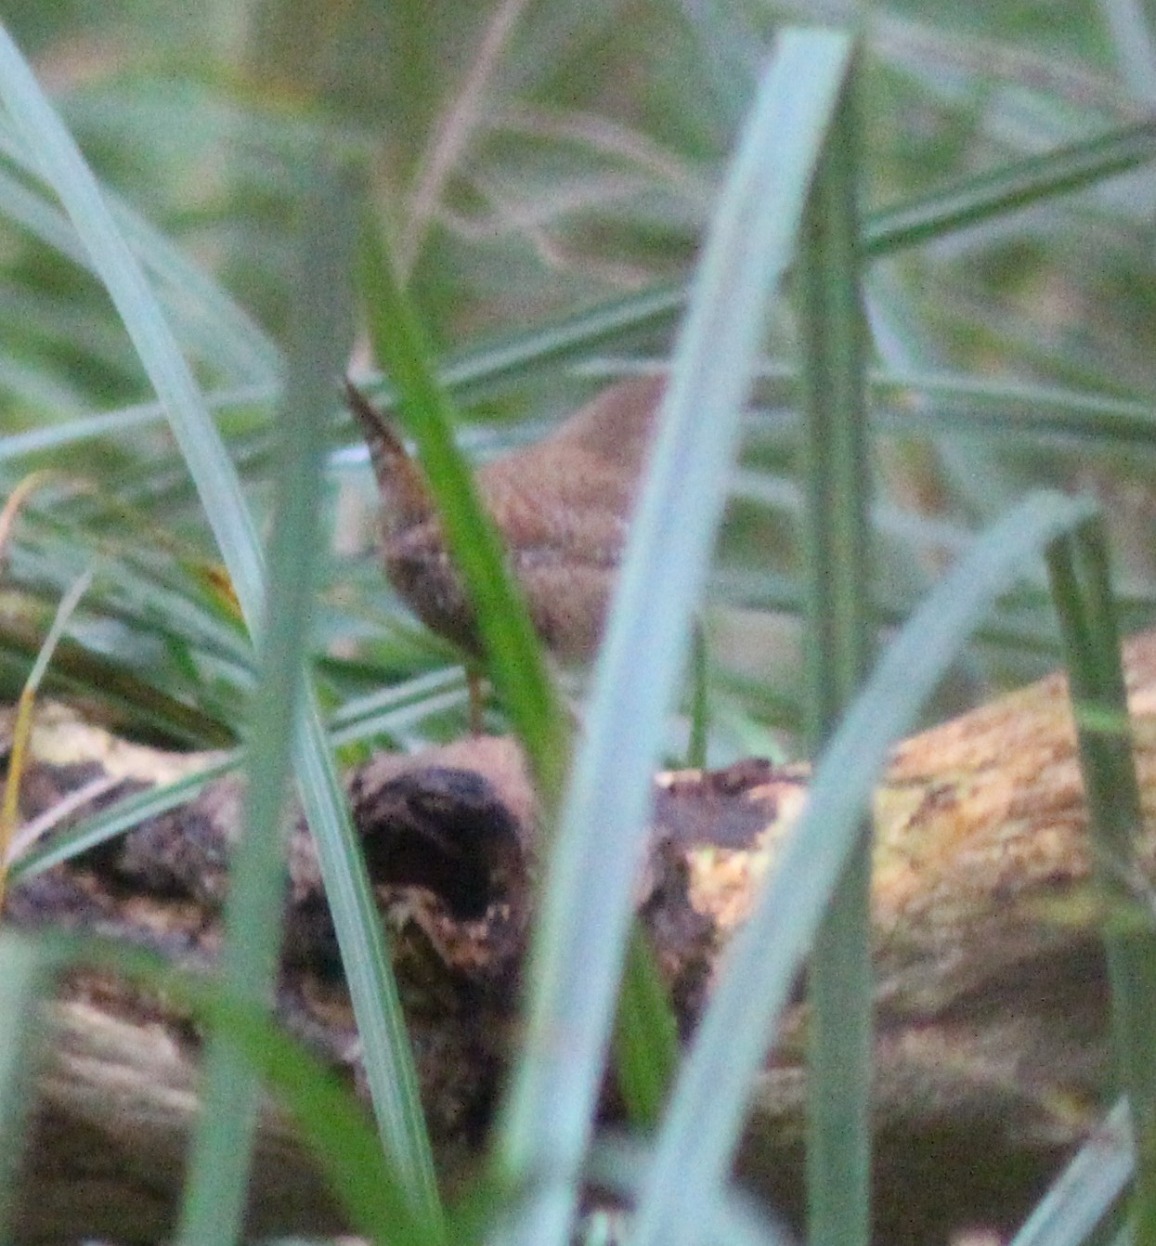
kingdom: Animalia
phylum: Chordata
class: Aves
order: Passeriformes
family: Troglodytidae
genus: Troglodytes
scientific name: Troglodytes troglodytes
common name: Gærdesmutte
